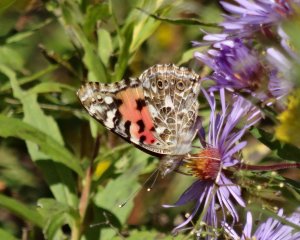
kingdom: Animalia
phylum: Arthropoda
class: Insecta
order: Lepidoptera
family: Nymphalidae
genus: Vanessa
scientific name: Vanessa cardui
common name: Painted Lady
